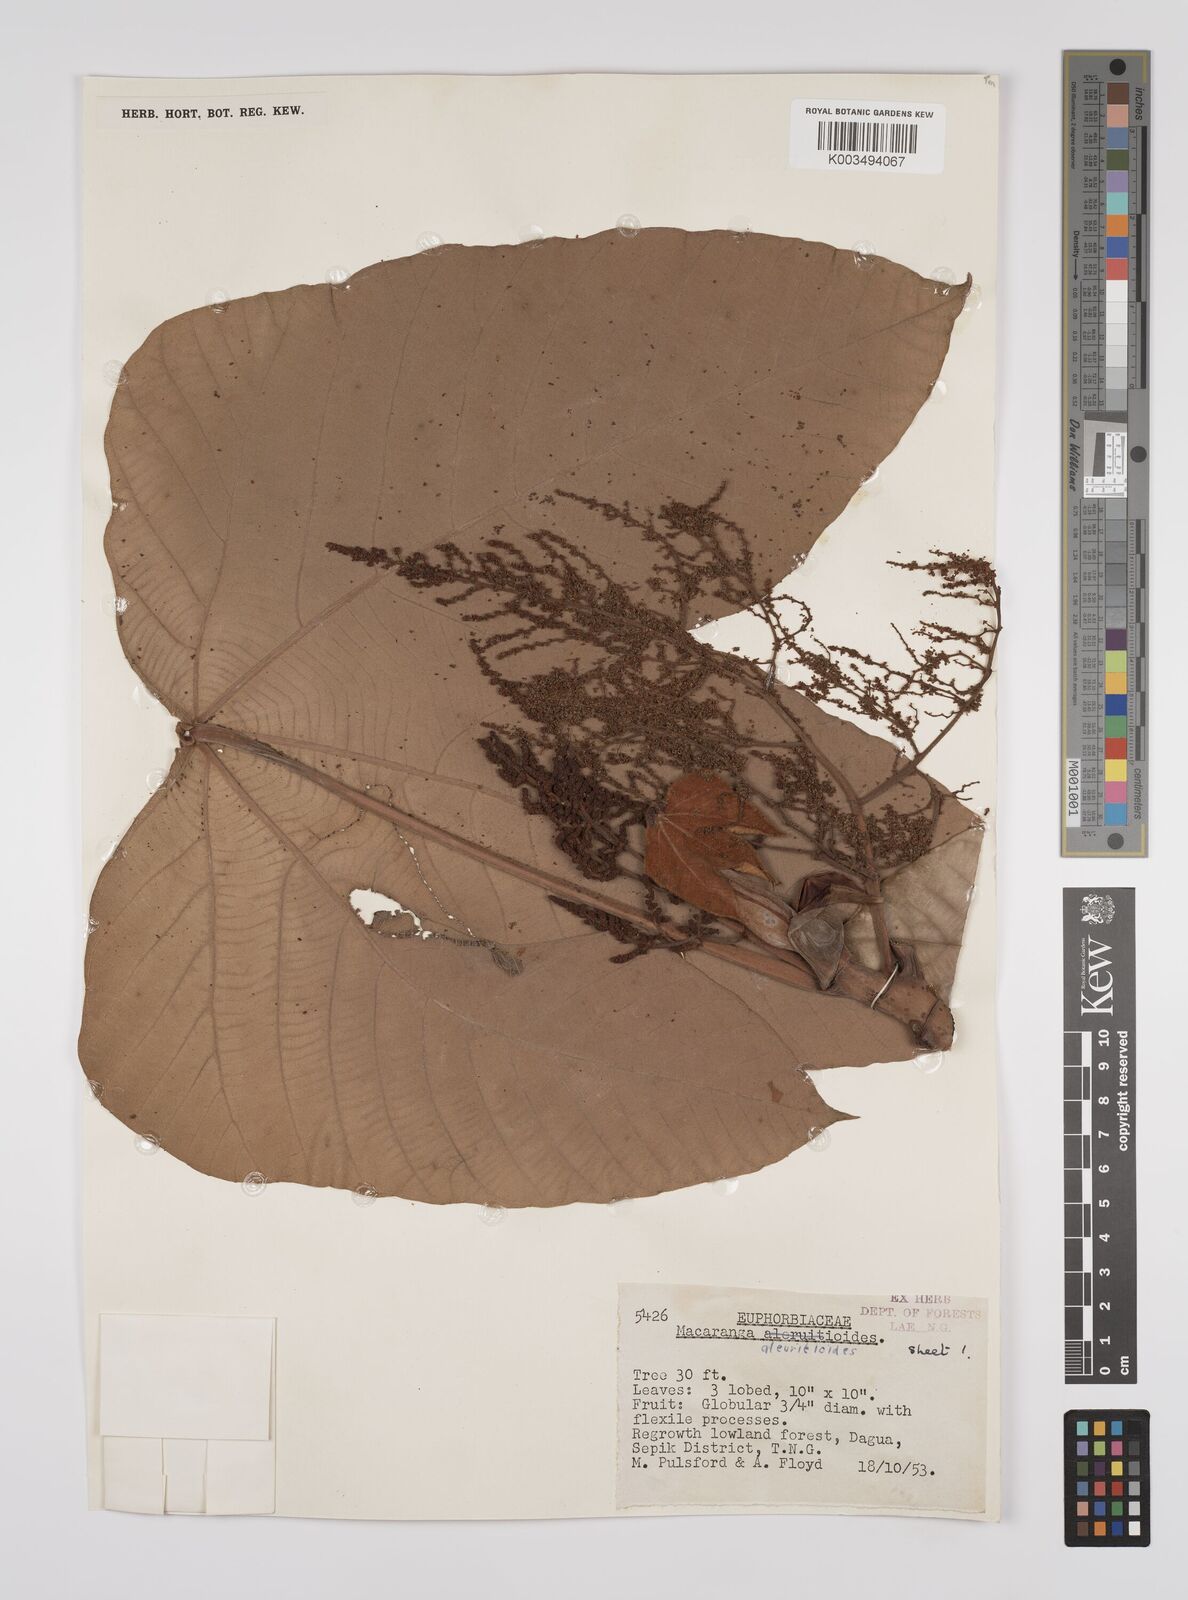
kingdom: Plantae
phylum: Tracheophyta
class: Magnoliopsida
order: Malpighiales
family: Euphorbiaceae
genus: Macaranga
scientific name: Macaranga aleuritoides
